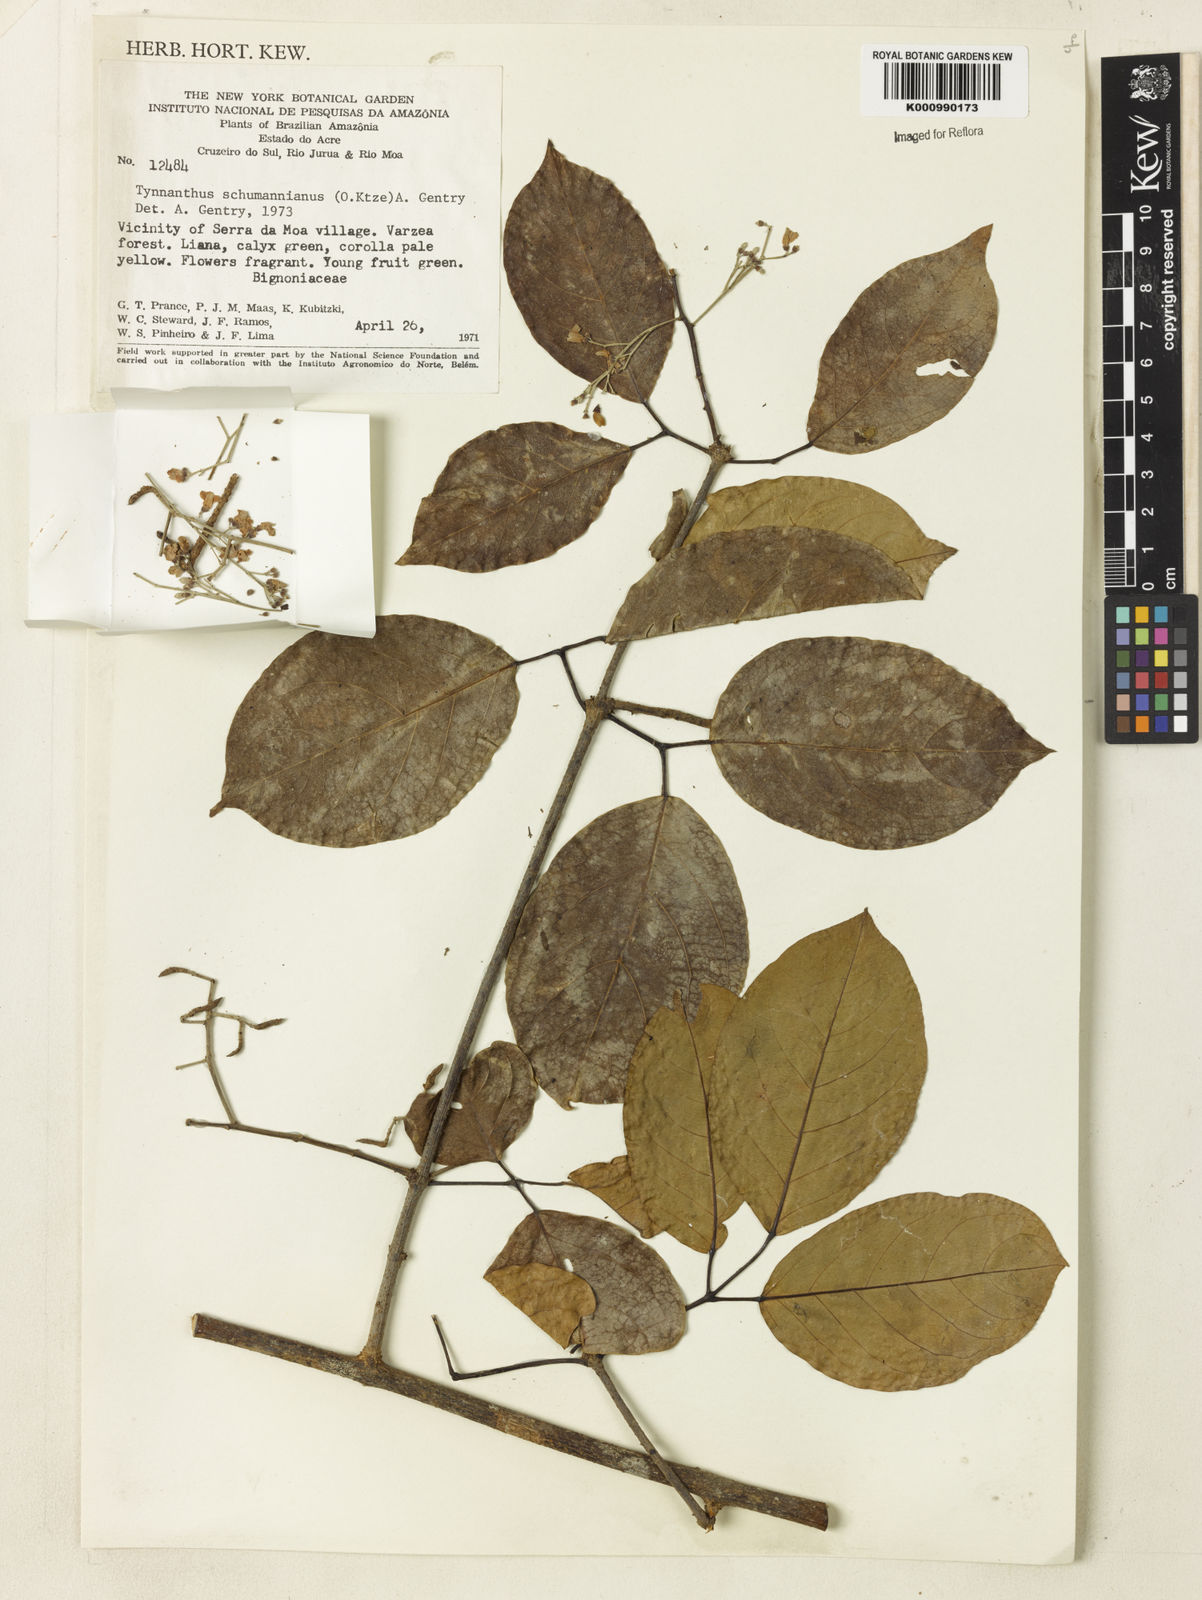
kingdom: Plantae
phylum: Tracheophyta
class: Magnoliopsida
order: Lamiales
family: Bignoniaceae
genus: Tynanthus
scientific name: Tynanthus schumannianus
